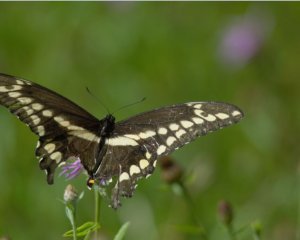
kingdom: Animalia
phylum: Arthropoda
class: Insecta
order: Lepidoptera
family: Papilionidae
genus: Papilio
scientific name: Papilio cresphontes
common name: Eastern Giant Swallowtail
